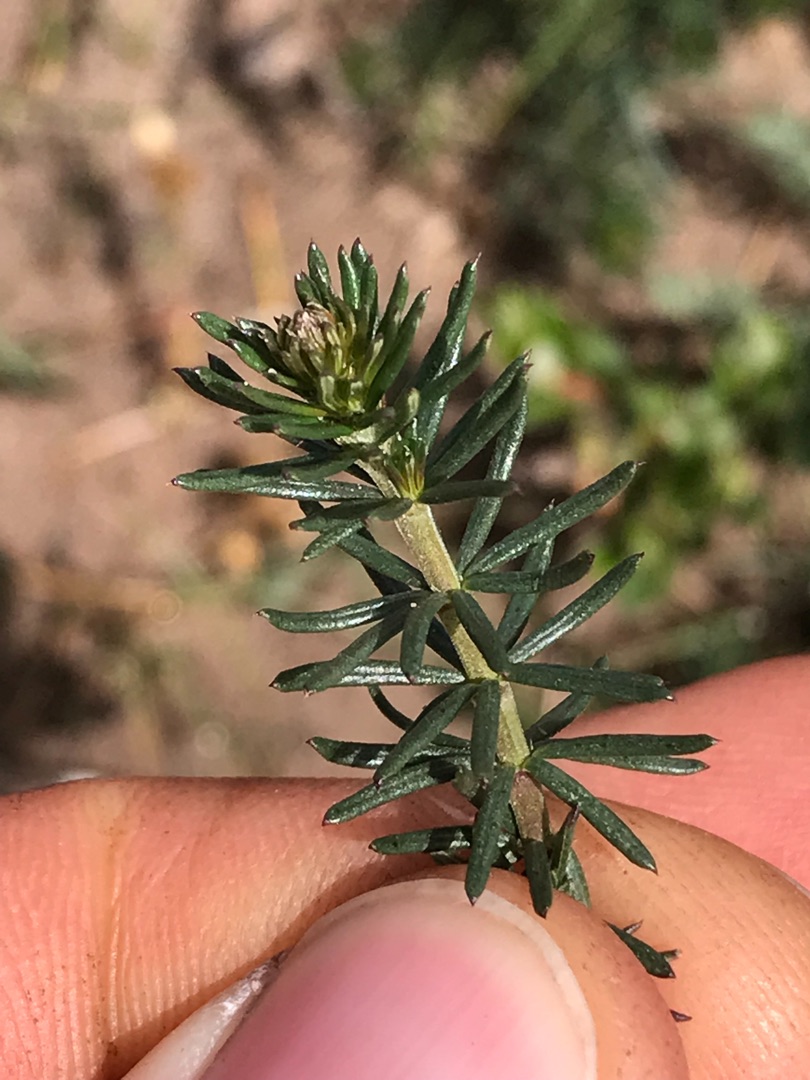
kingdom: Plantae
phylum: Tracheophyta
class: Magnoliopsida
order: Gentianales
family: Rubiaceae
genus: Galium
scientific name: Galium verum
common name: Gul snerre
